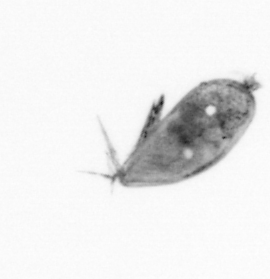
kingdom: Animalia
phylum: Arthropoda
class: Maxillopoda
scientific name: Maxillopoda
